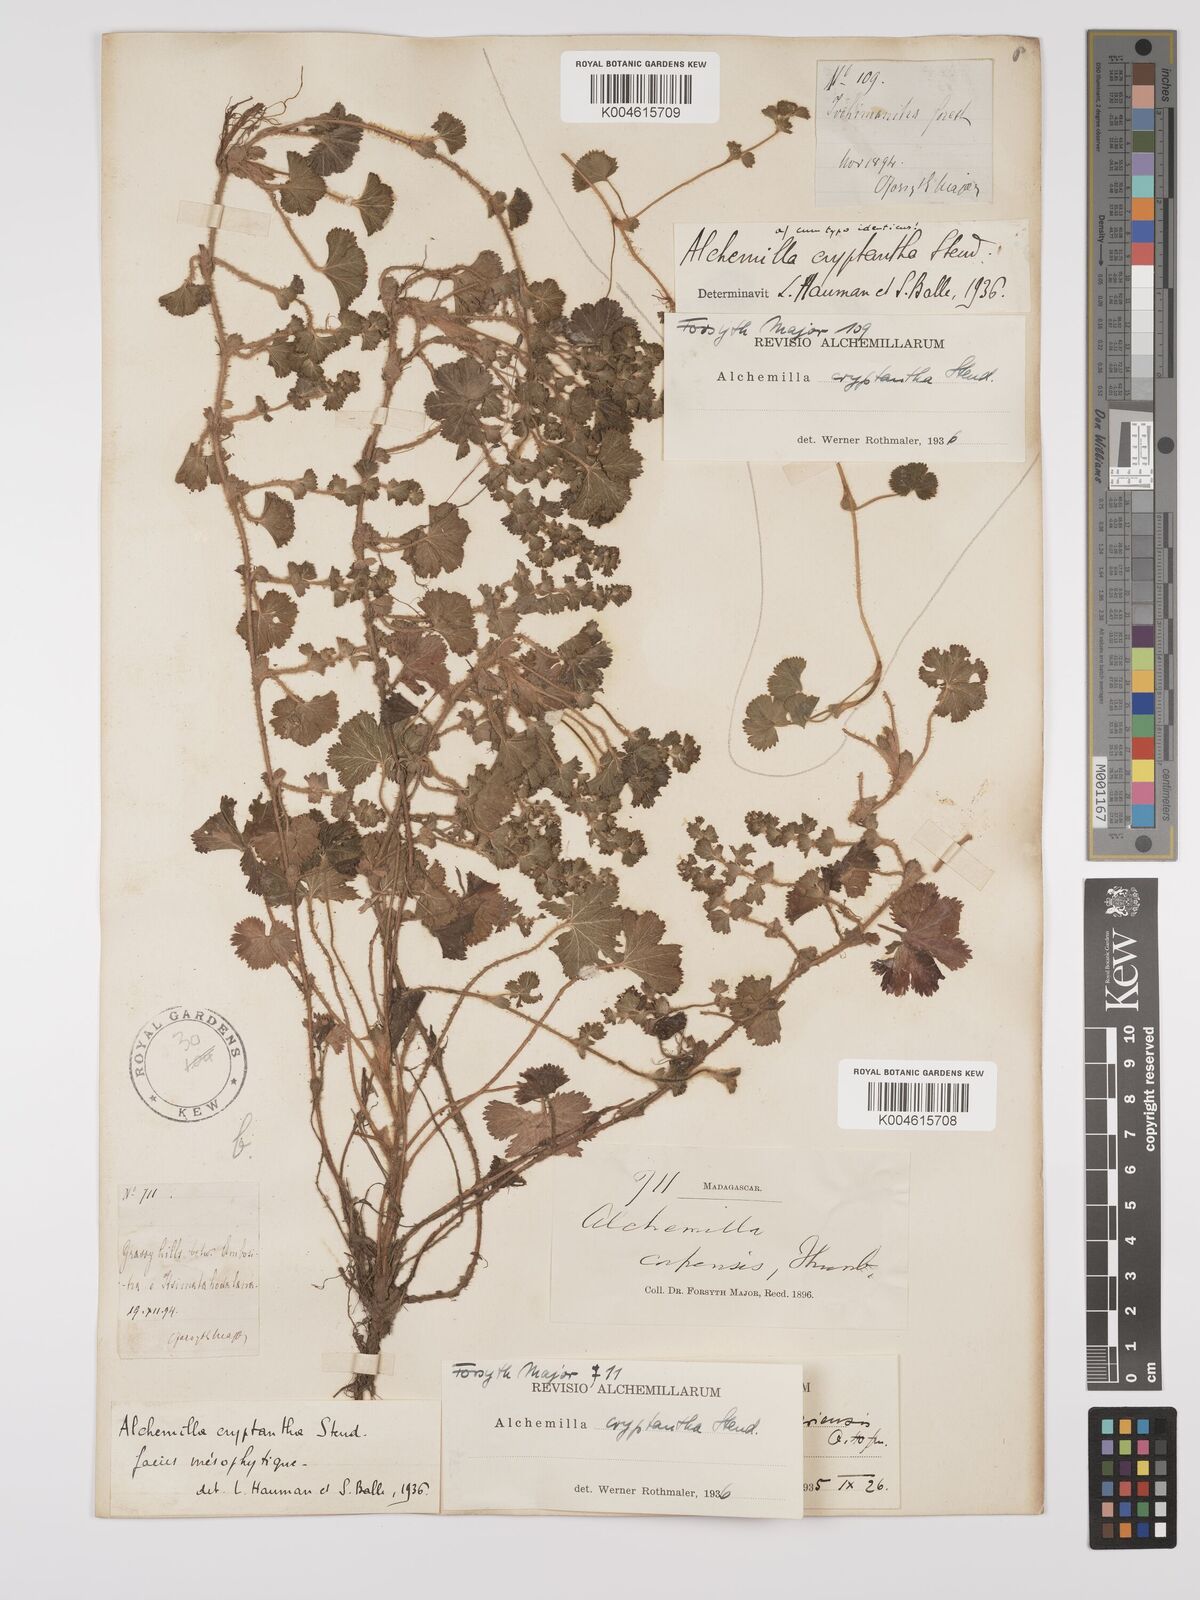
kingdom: Plantae
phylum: Tracheophyta
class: Magnoliopsida
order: Rosales
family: Rosaceae
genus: Alchemilla
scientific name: Alchemilla cryptantha
